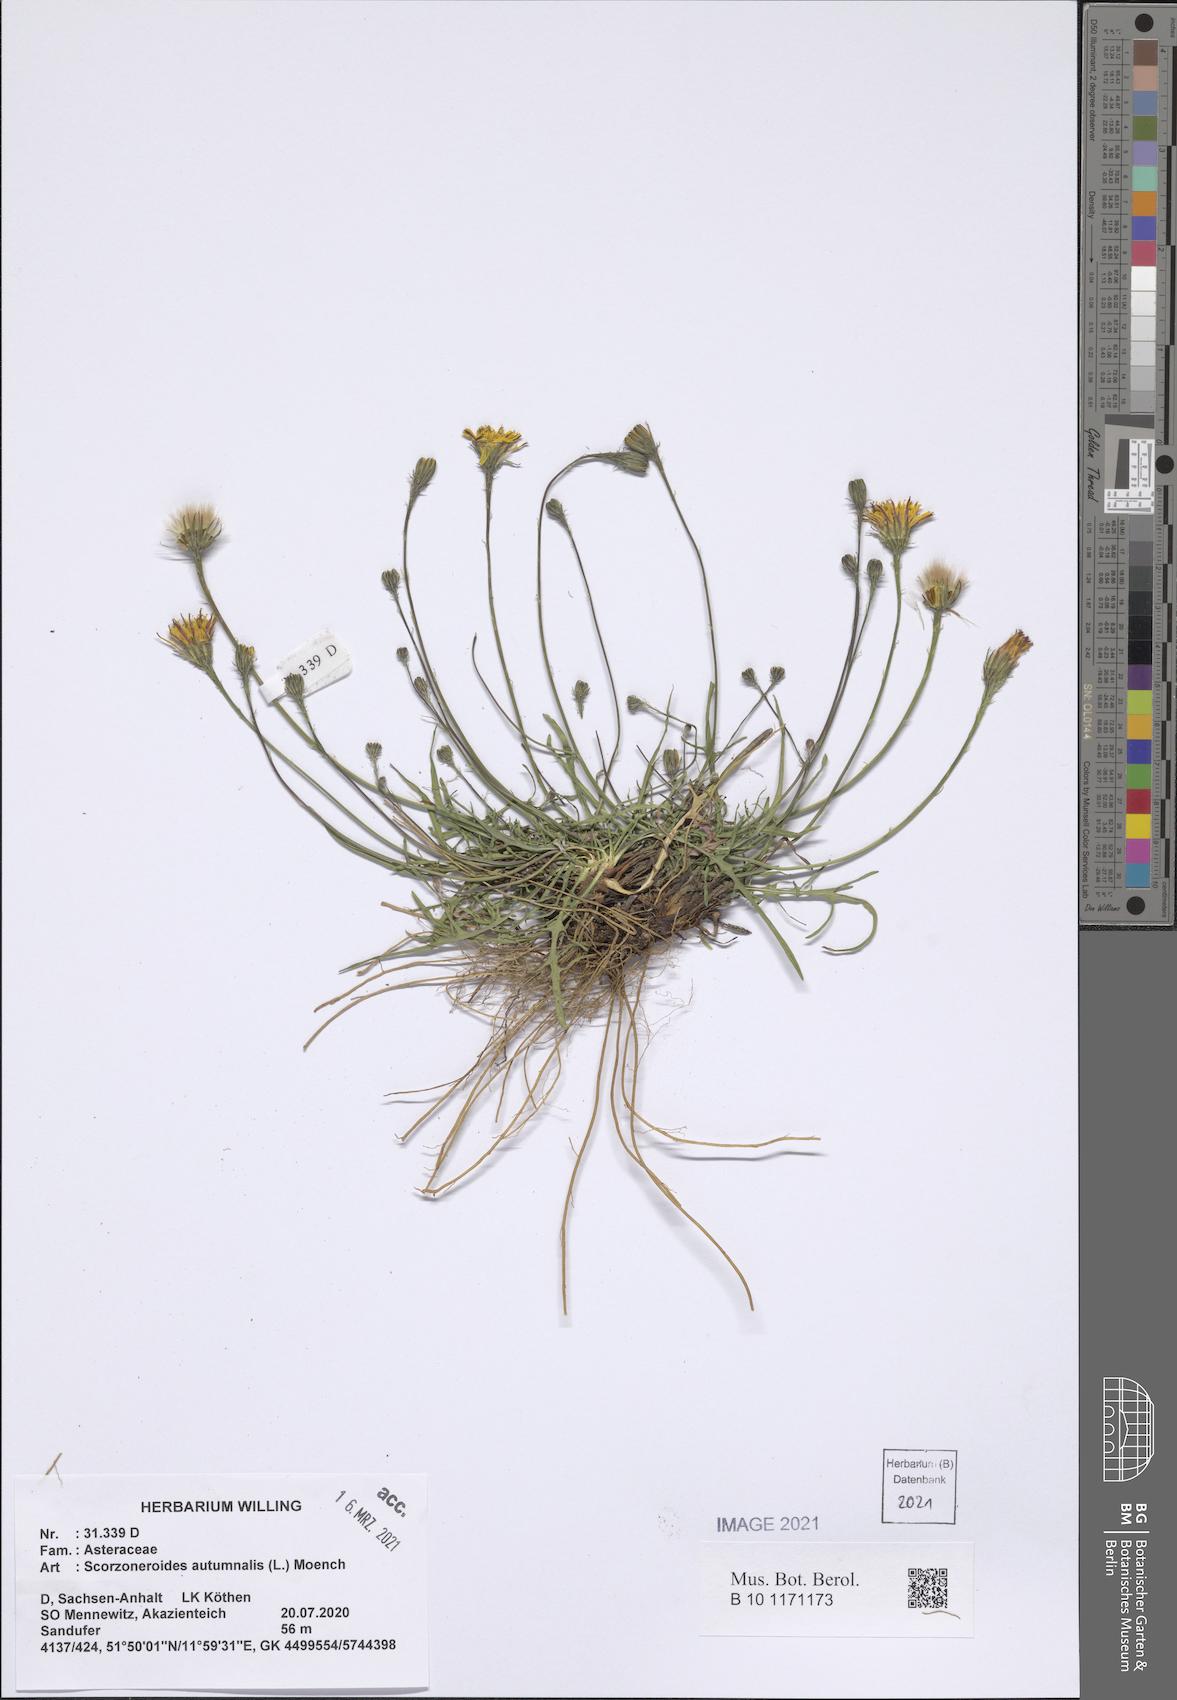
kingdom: Plantae
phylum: Tracheophyta
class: Magnoliopsida
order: Asterales
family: Asteraceae
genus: Scorzoneroides
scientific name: Scorzoneroides autumnalis
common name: Autumn hawkbit
